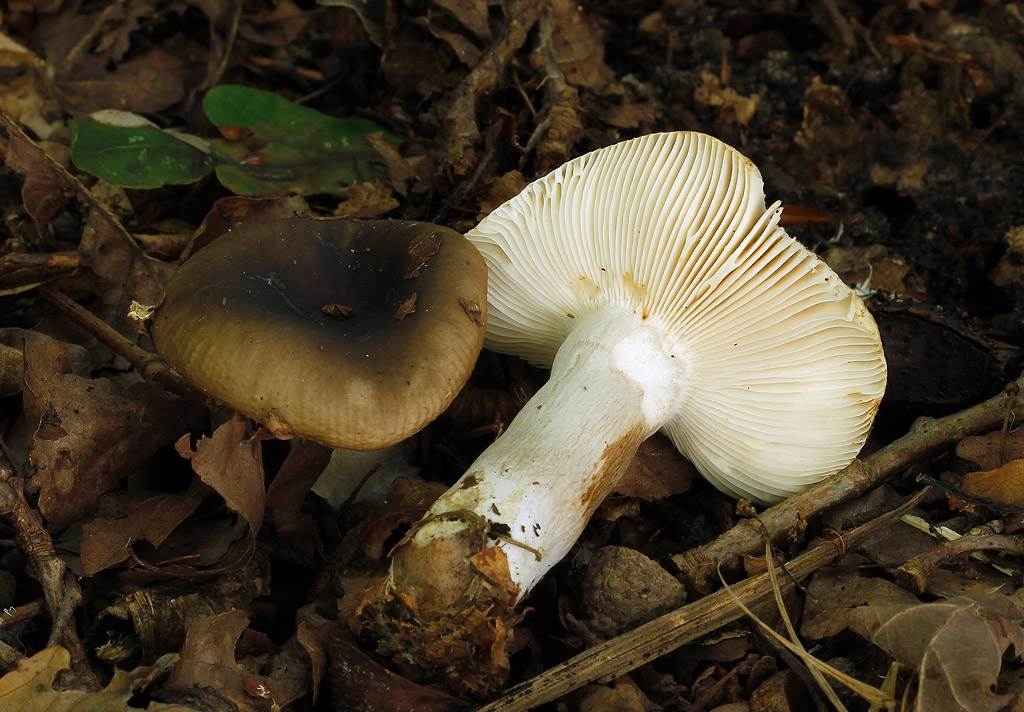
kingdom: Fungi
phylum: Basidiomycota
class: Agaricomycetes
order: Russulales
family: Russulaceae
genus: Russula
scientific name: Russula amoenolens
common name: skarp kam-skørhat
